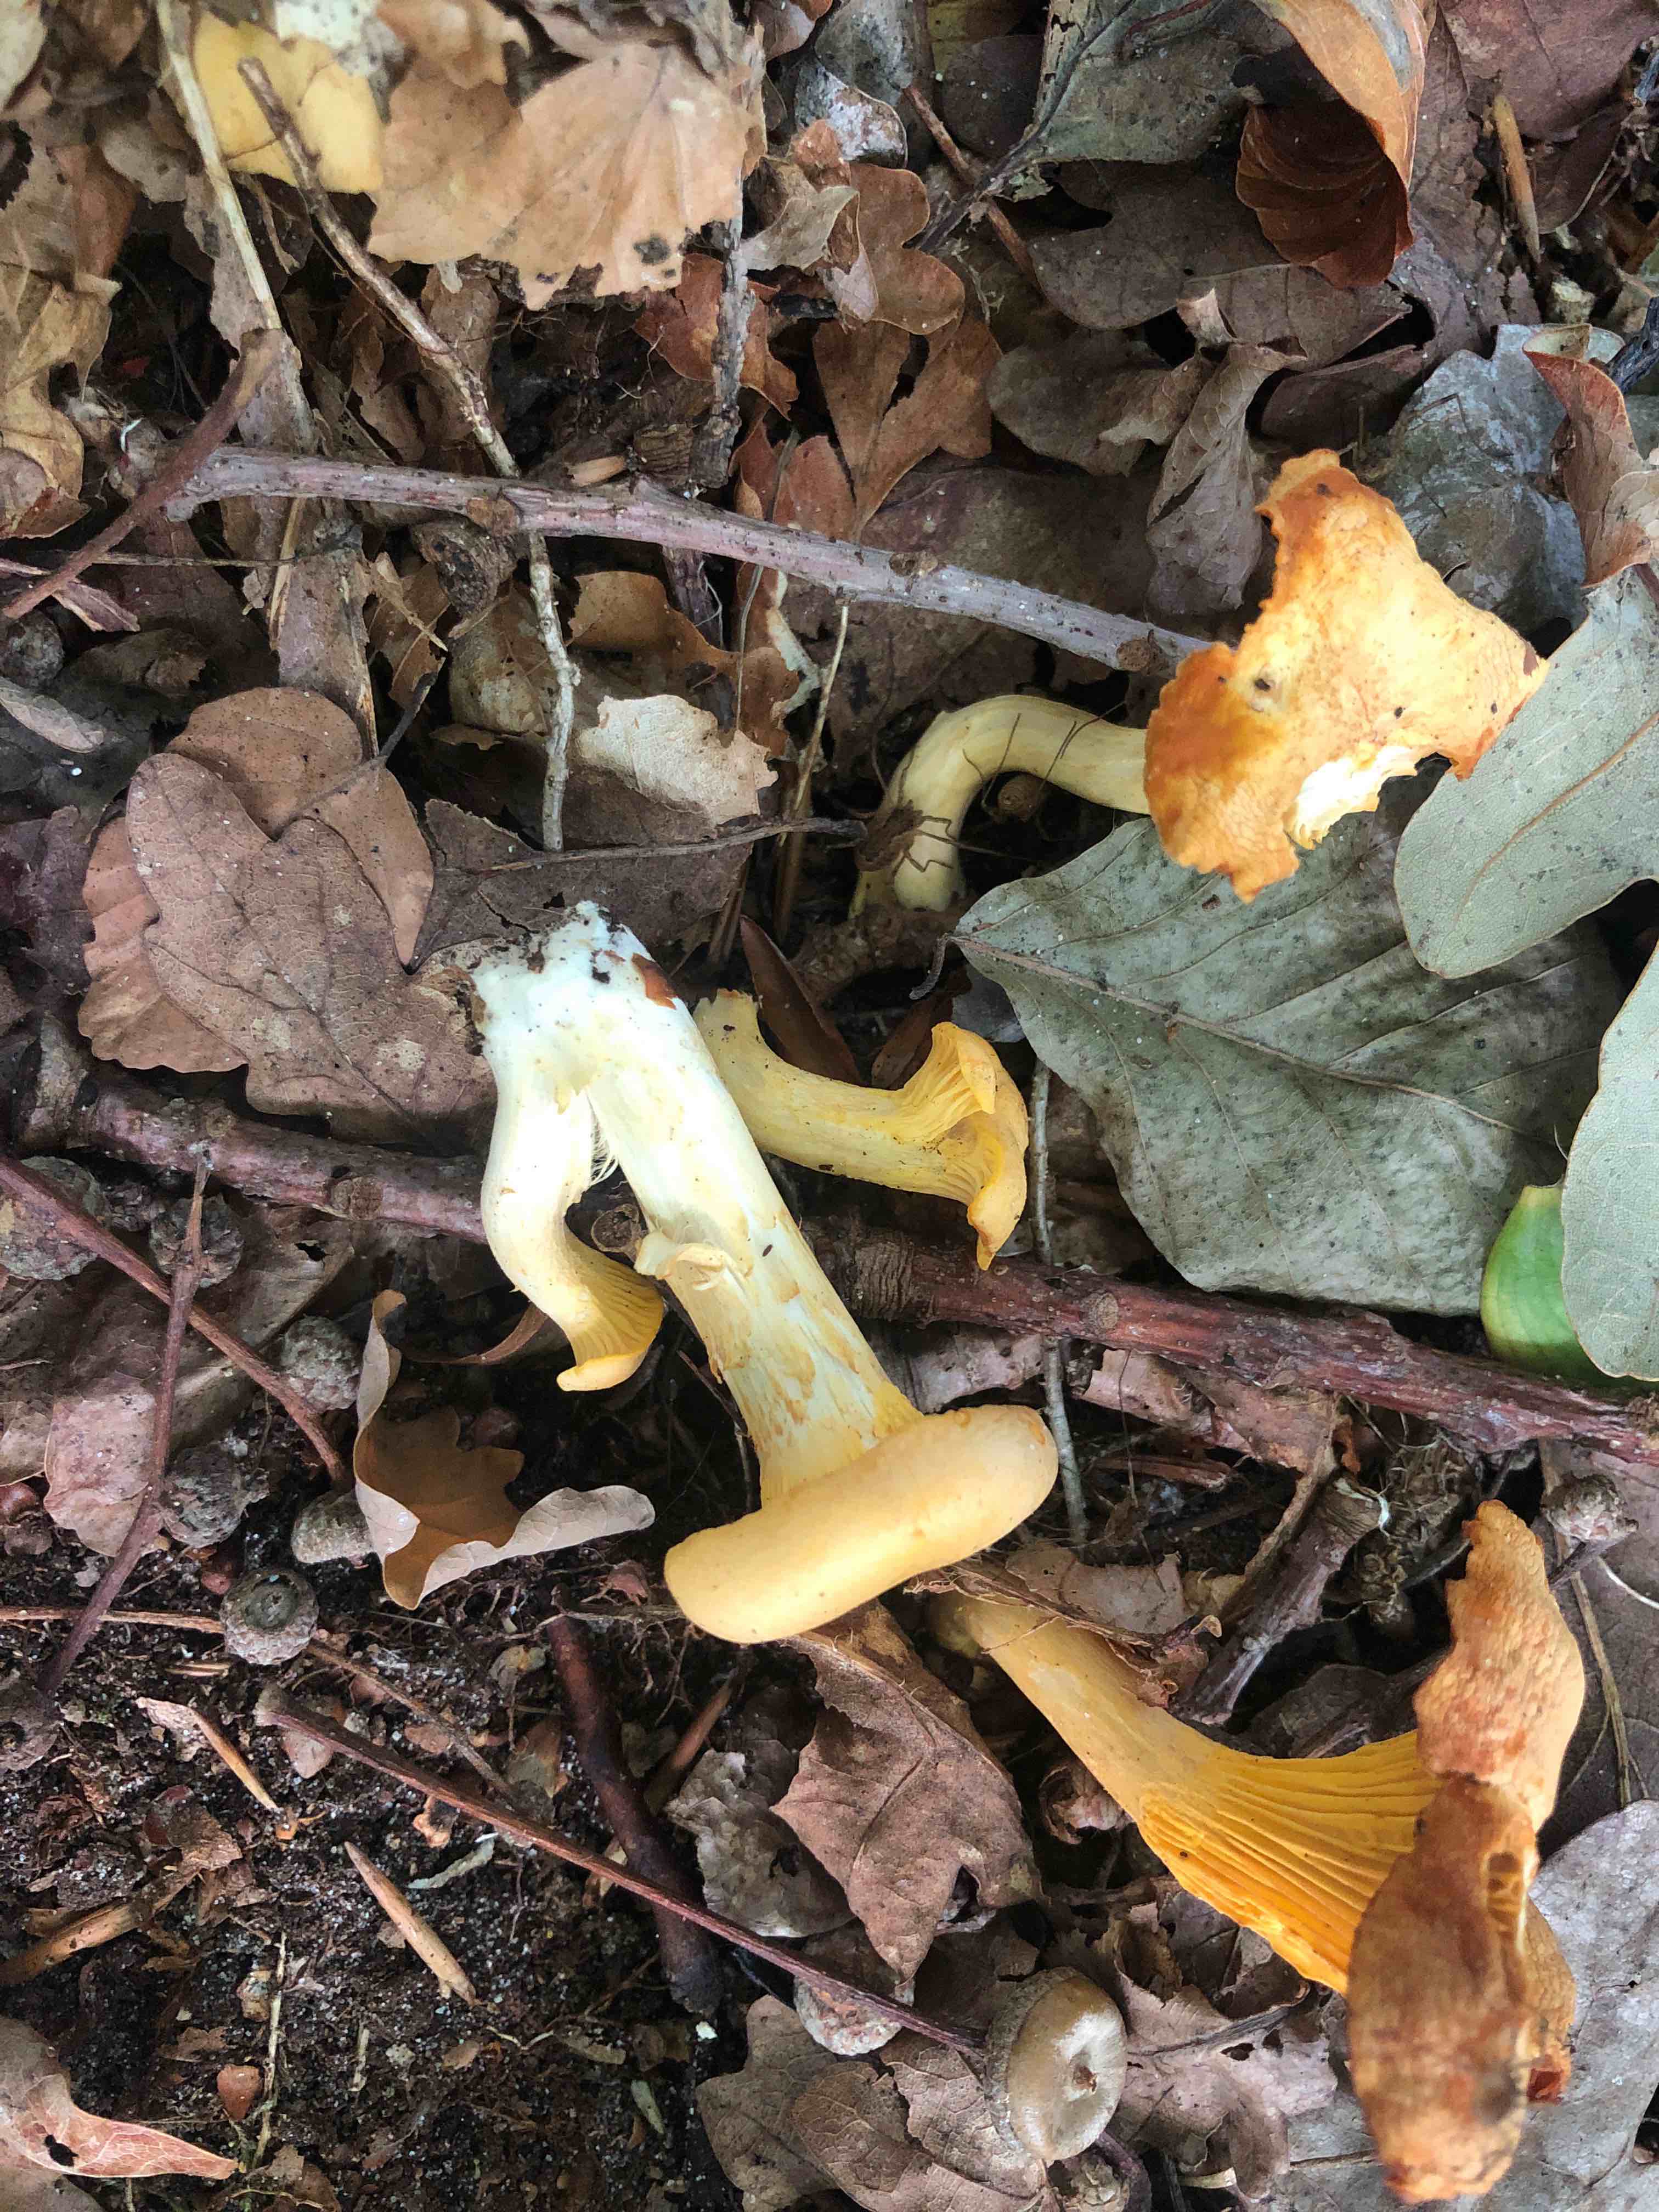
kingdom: Fungi
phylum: Basidiomycota
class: Agaricomycetes
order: Cantharellales
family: Hydnaceae
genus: Cantharellus
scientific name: Cantharellus pallens
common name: bleg kantarel
